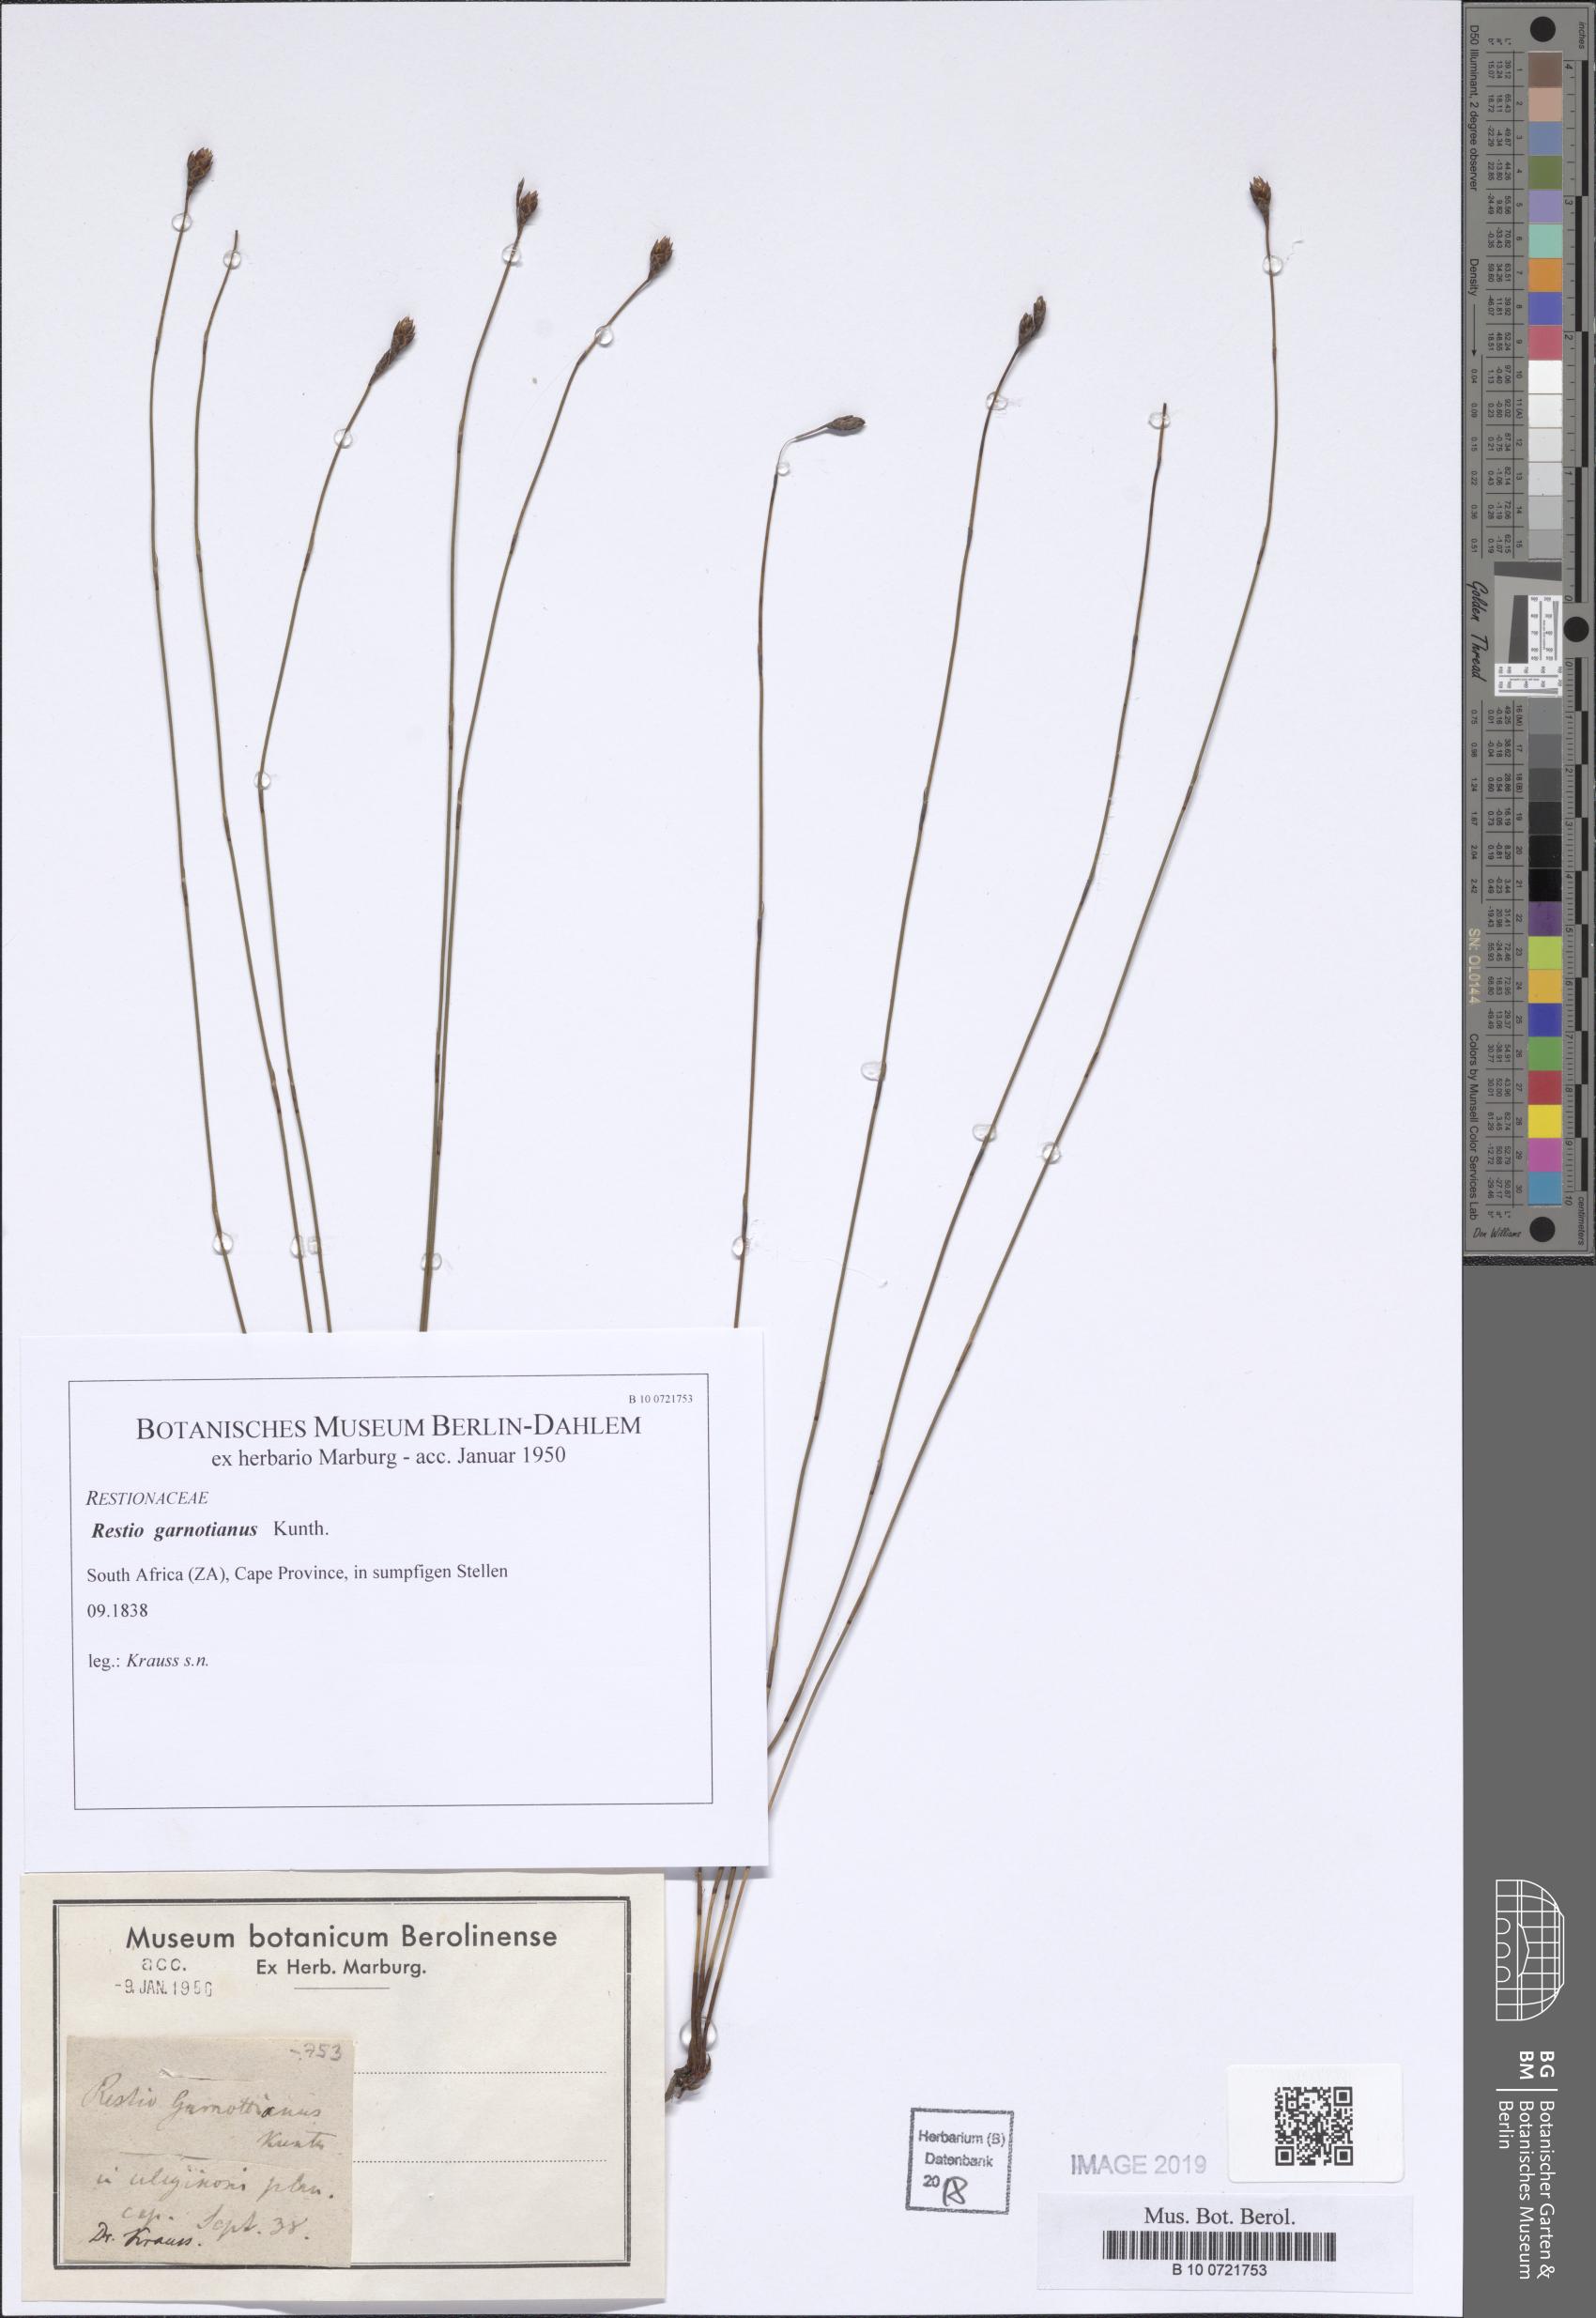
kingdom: Plantae
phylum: Tracheophyta
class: Liliopsida
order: Poales
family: Restionaceae
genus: Restio
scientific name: Restio filiformis
